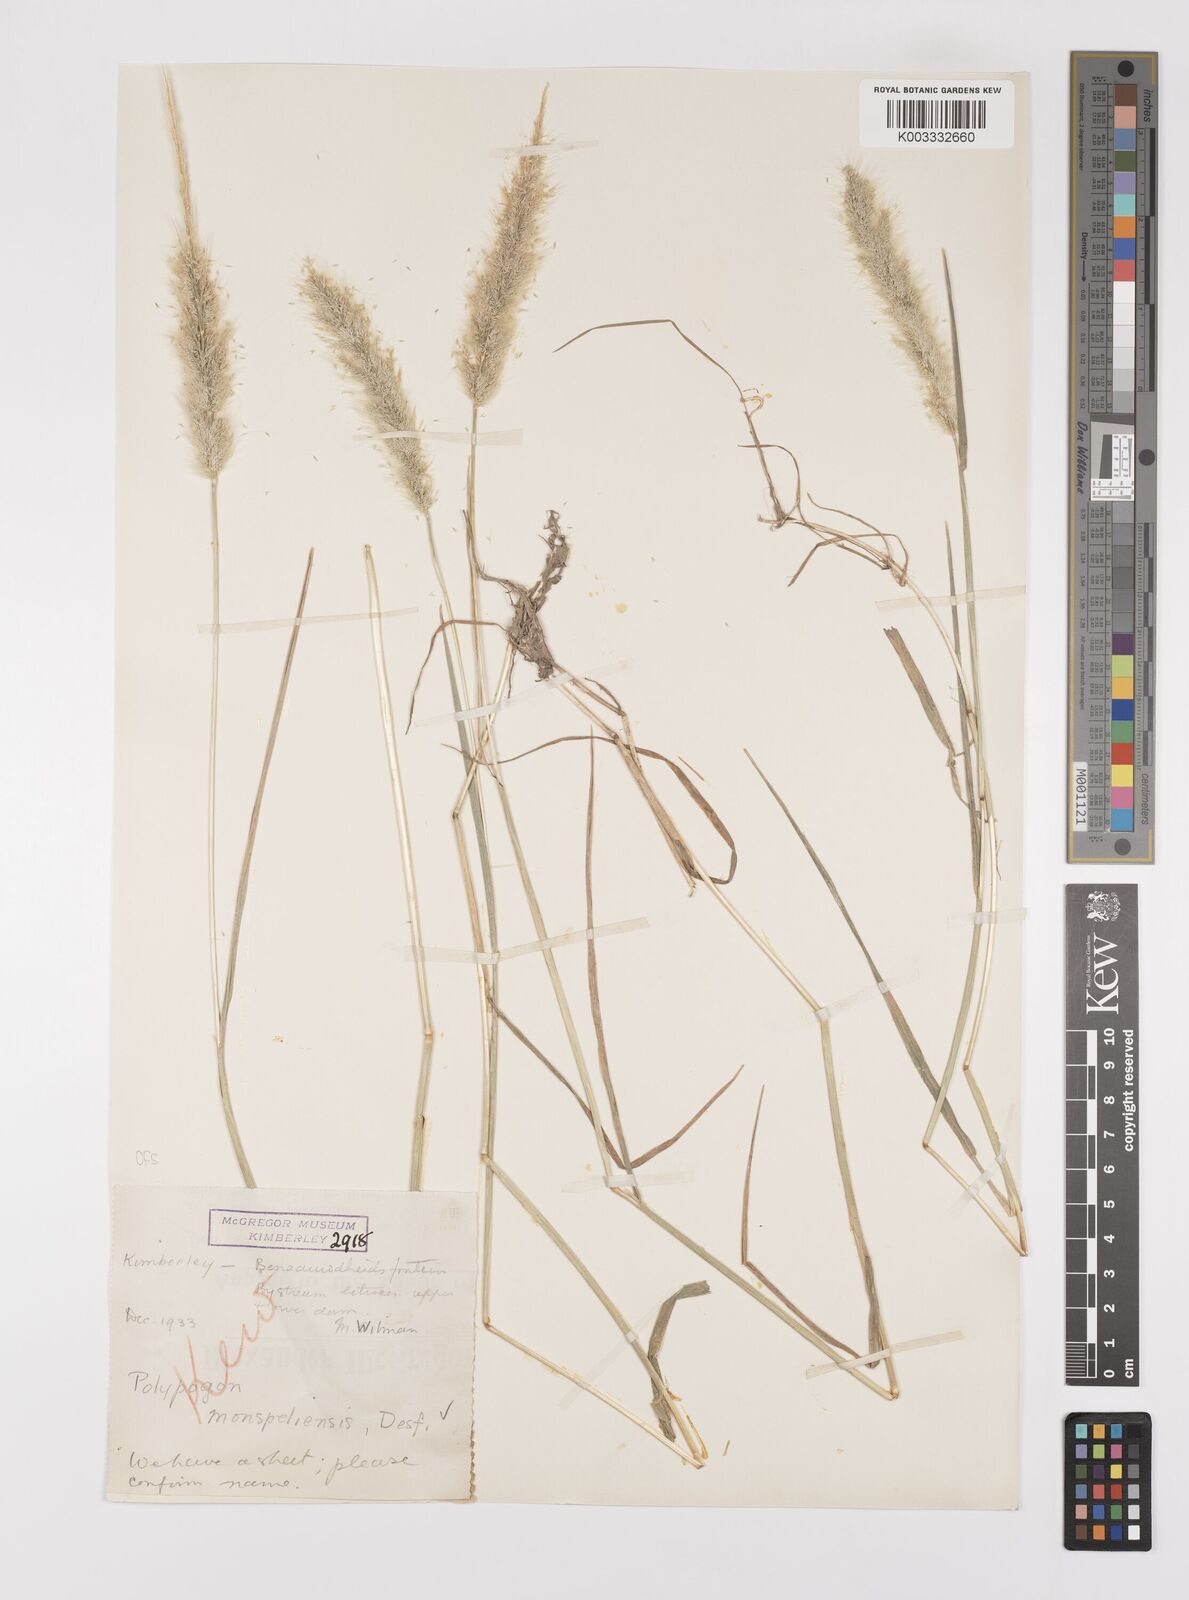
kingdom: Plantae
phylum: Tracheophyta
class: Liliopsida
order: Poales
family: Poaceae
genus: Polypogon
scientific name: Polypogon monspeliensis
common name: Annual rabbitsfoot grass
